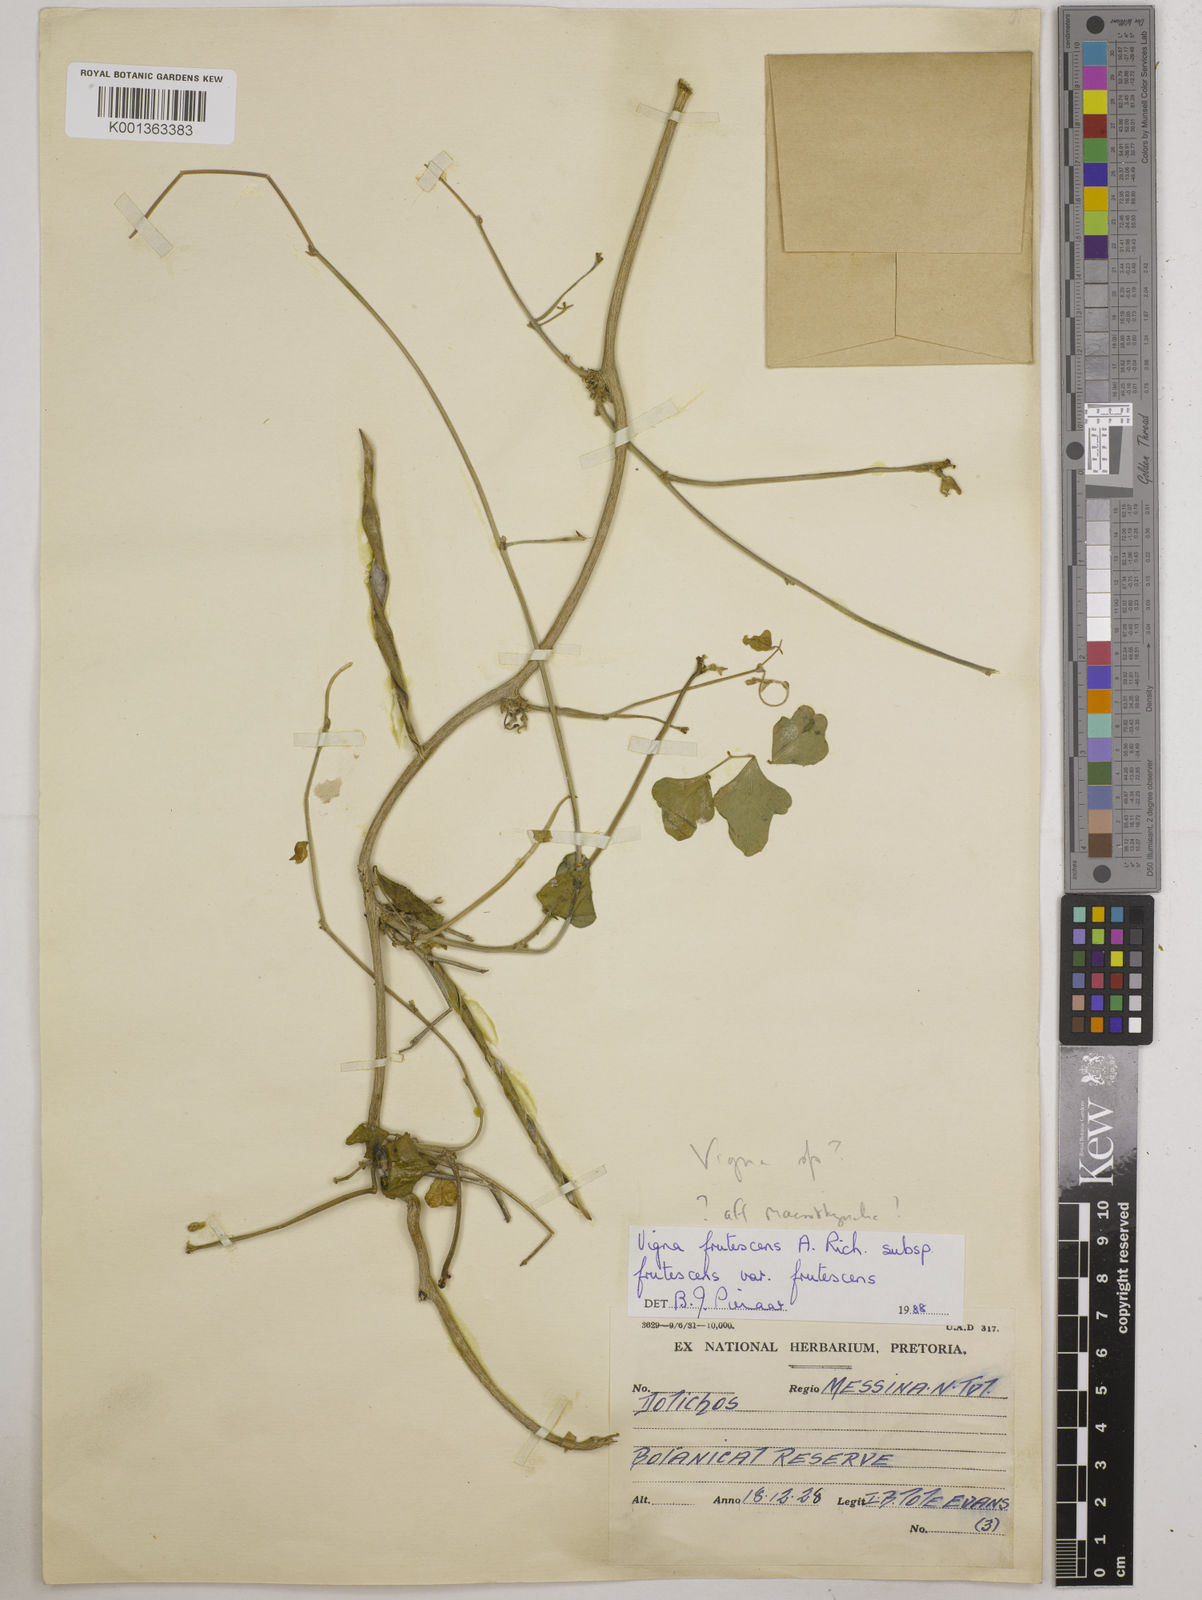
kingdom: Plantae
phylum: Tracheophyta
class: Magnoliopsida
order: Fabales
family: Fabaceae
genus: Vigna
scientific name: Vigna frutescens
